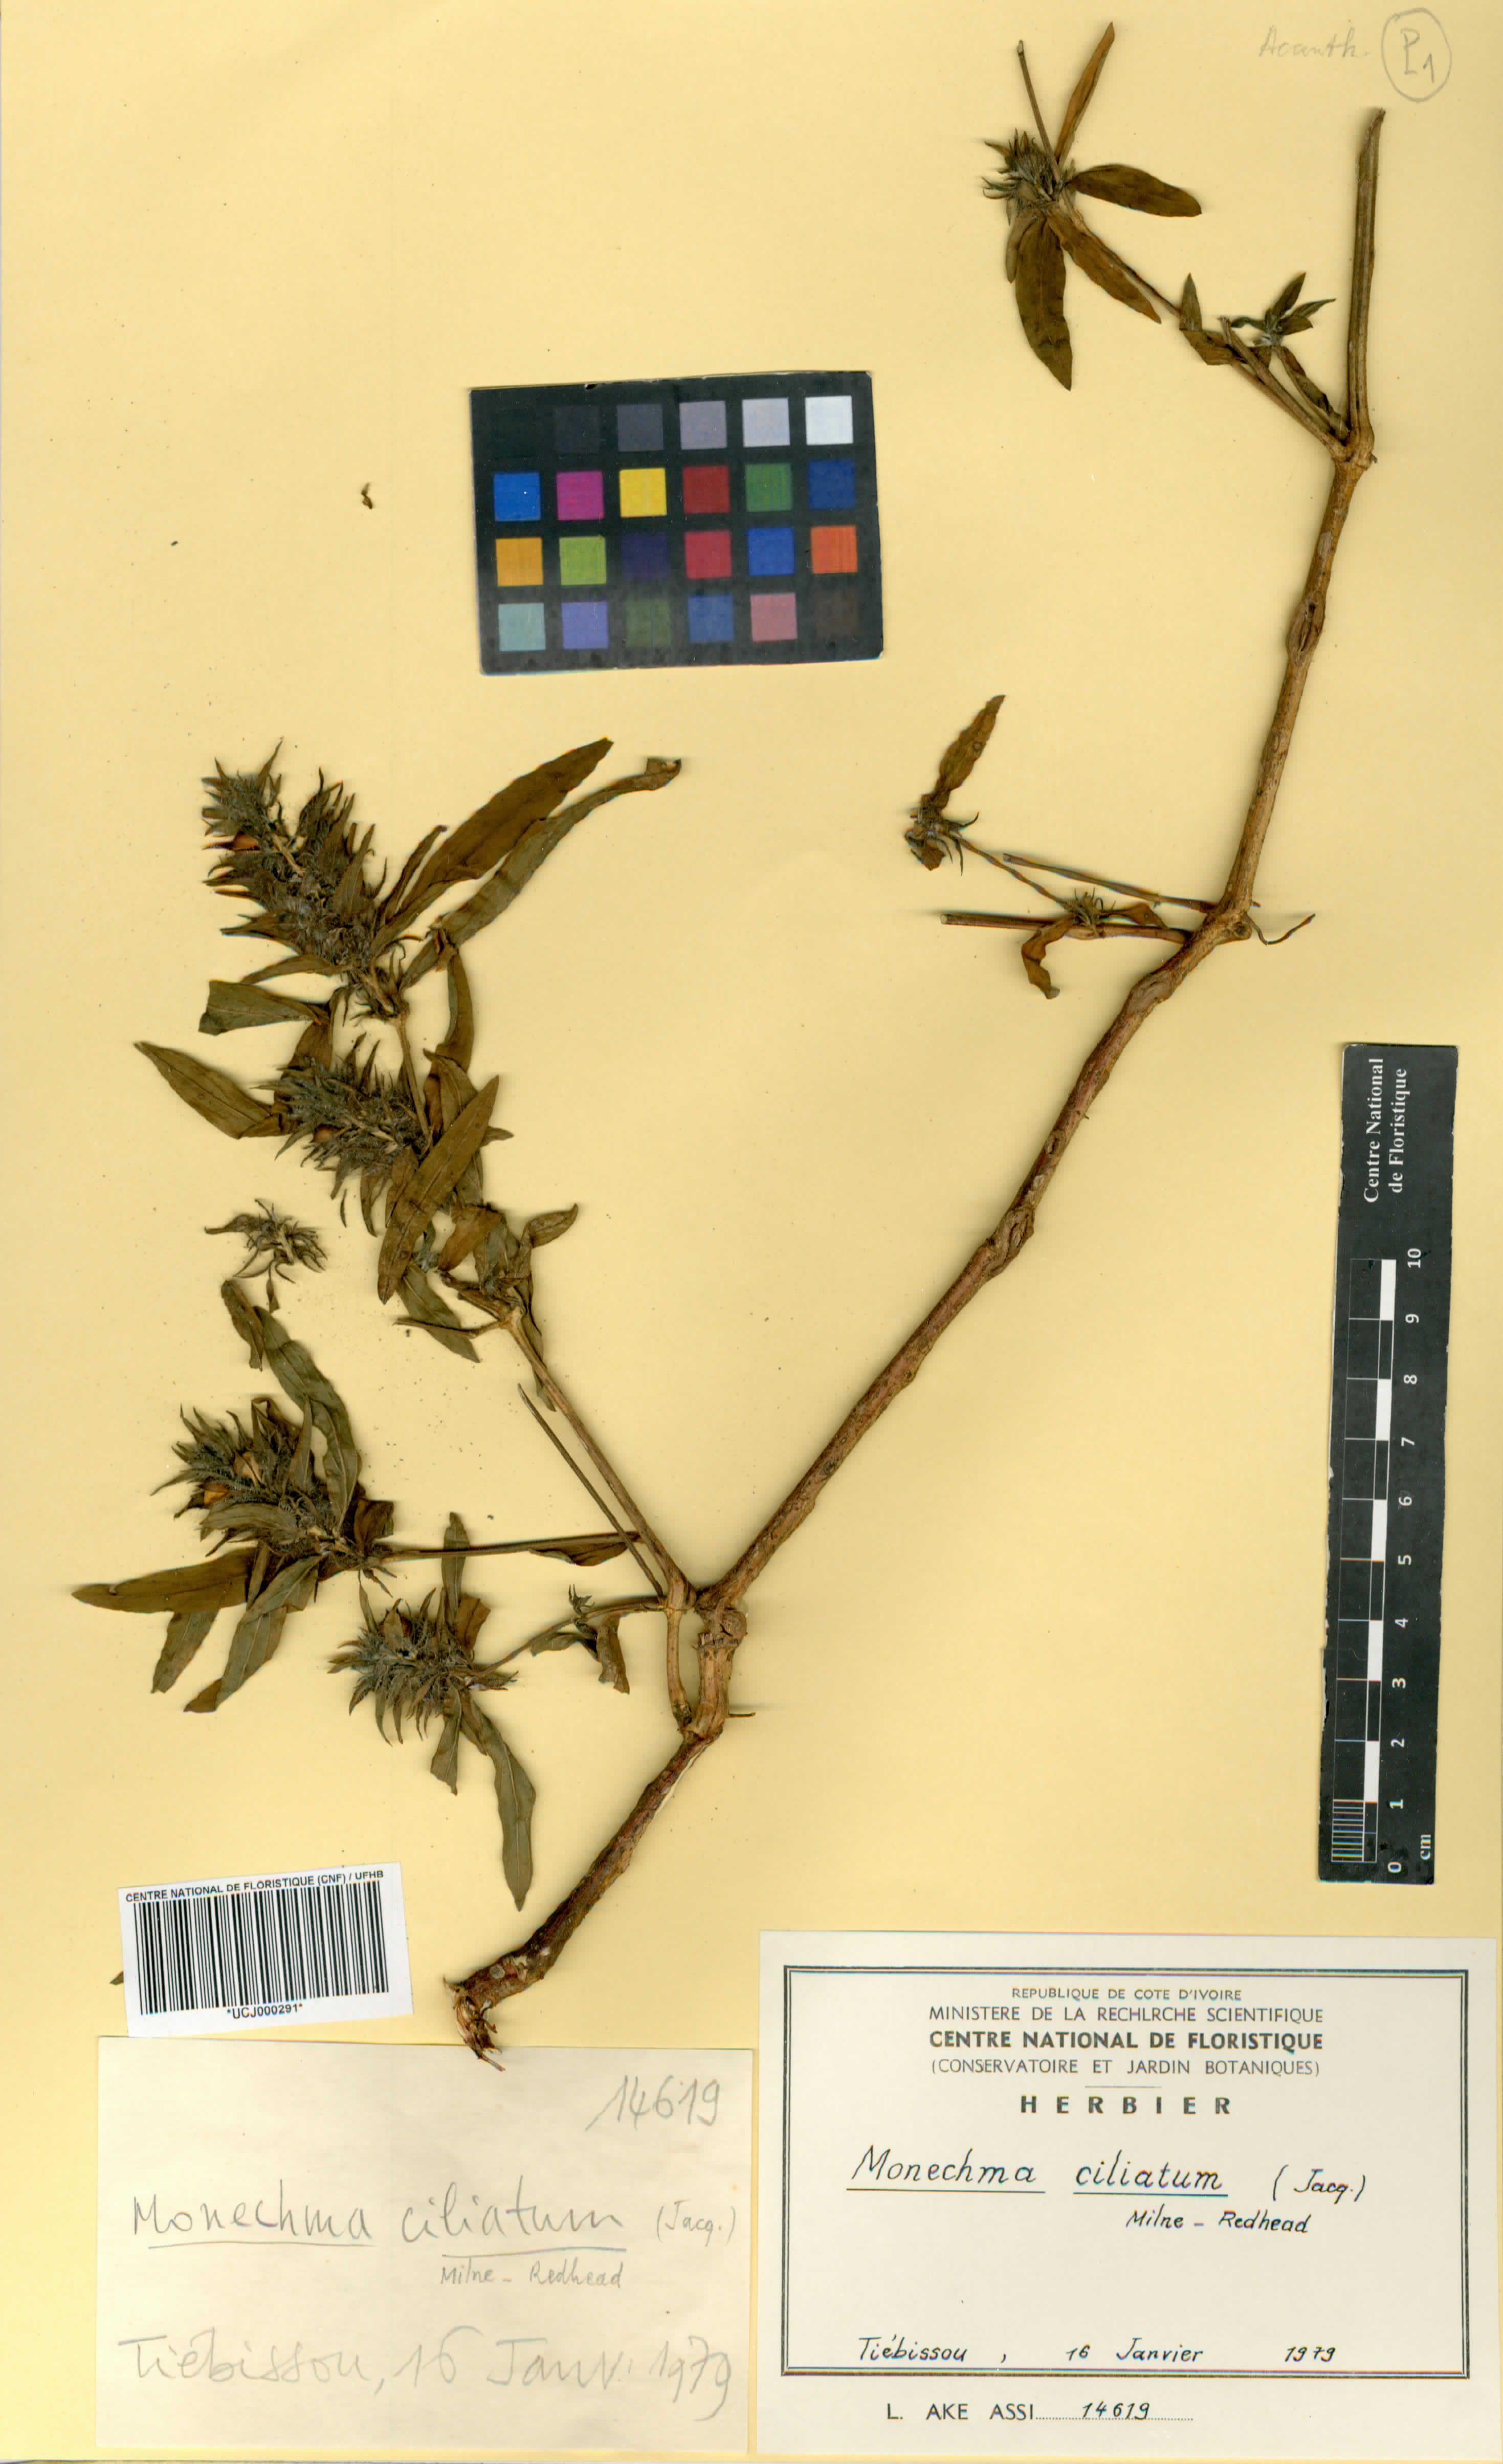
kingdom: Plantae
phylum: Tracheophyta
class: Magnoliopsida
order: Lamiales
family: Acanthaceae
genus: Monechma
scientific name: Monechma
